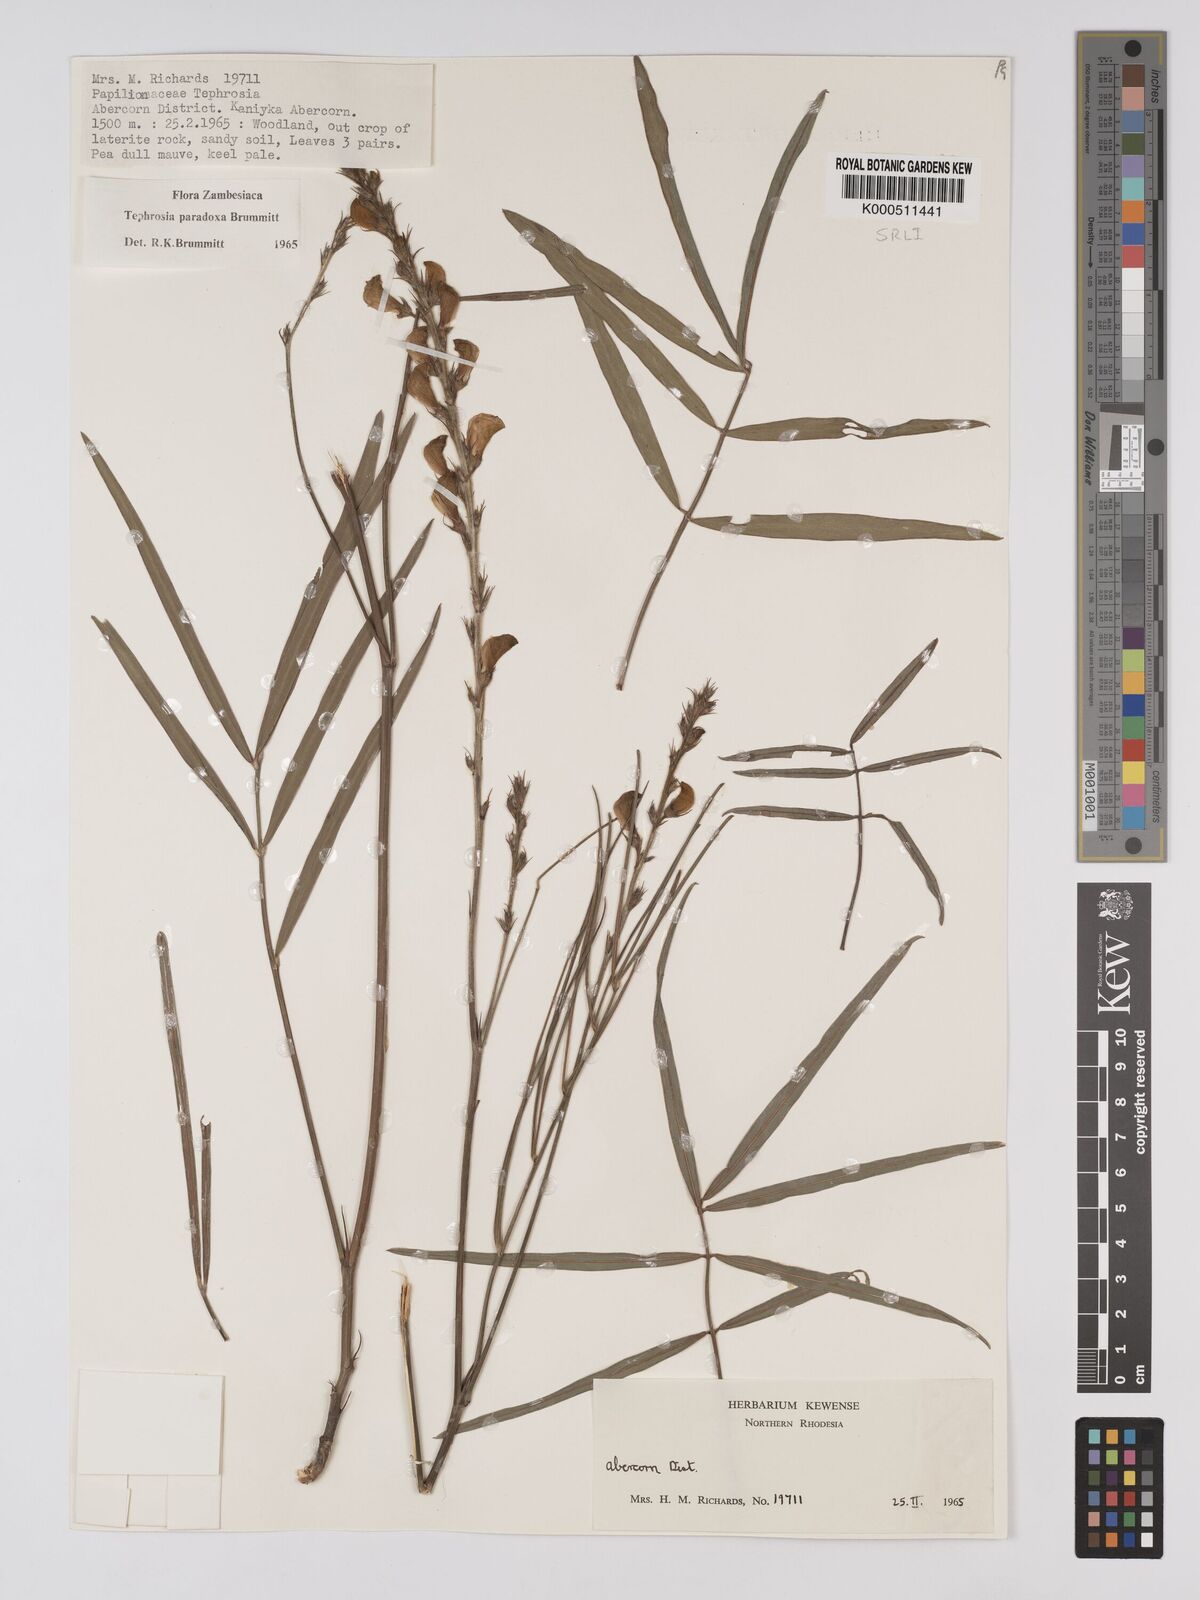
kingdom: Plantae
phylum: Tracheophyta
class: Magnoliopsida
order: Fabales
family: Fabaceae
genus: Tephrosia
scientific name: Tephrosia paradoxa
